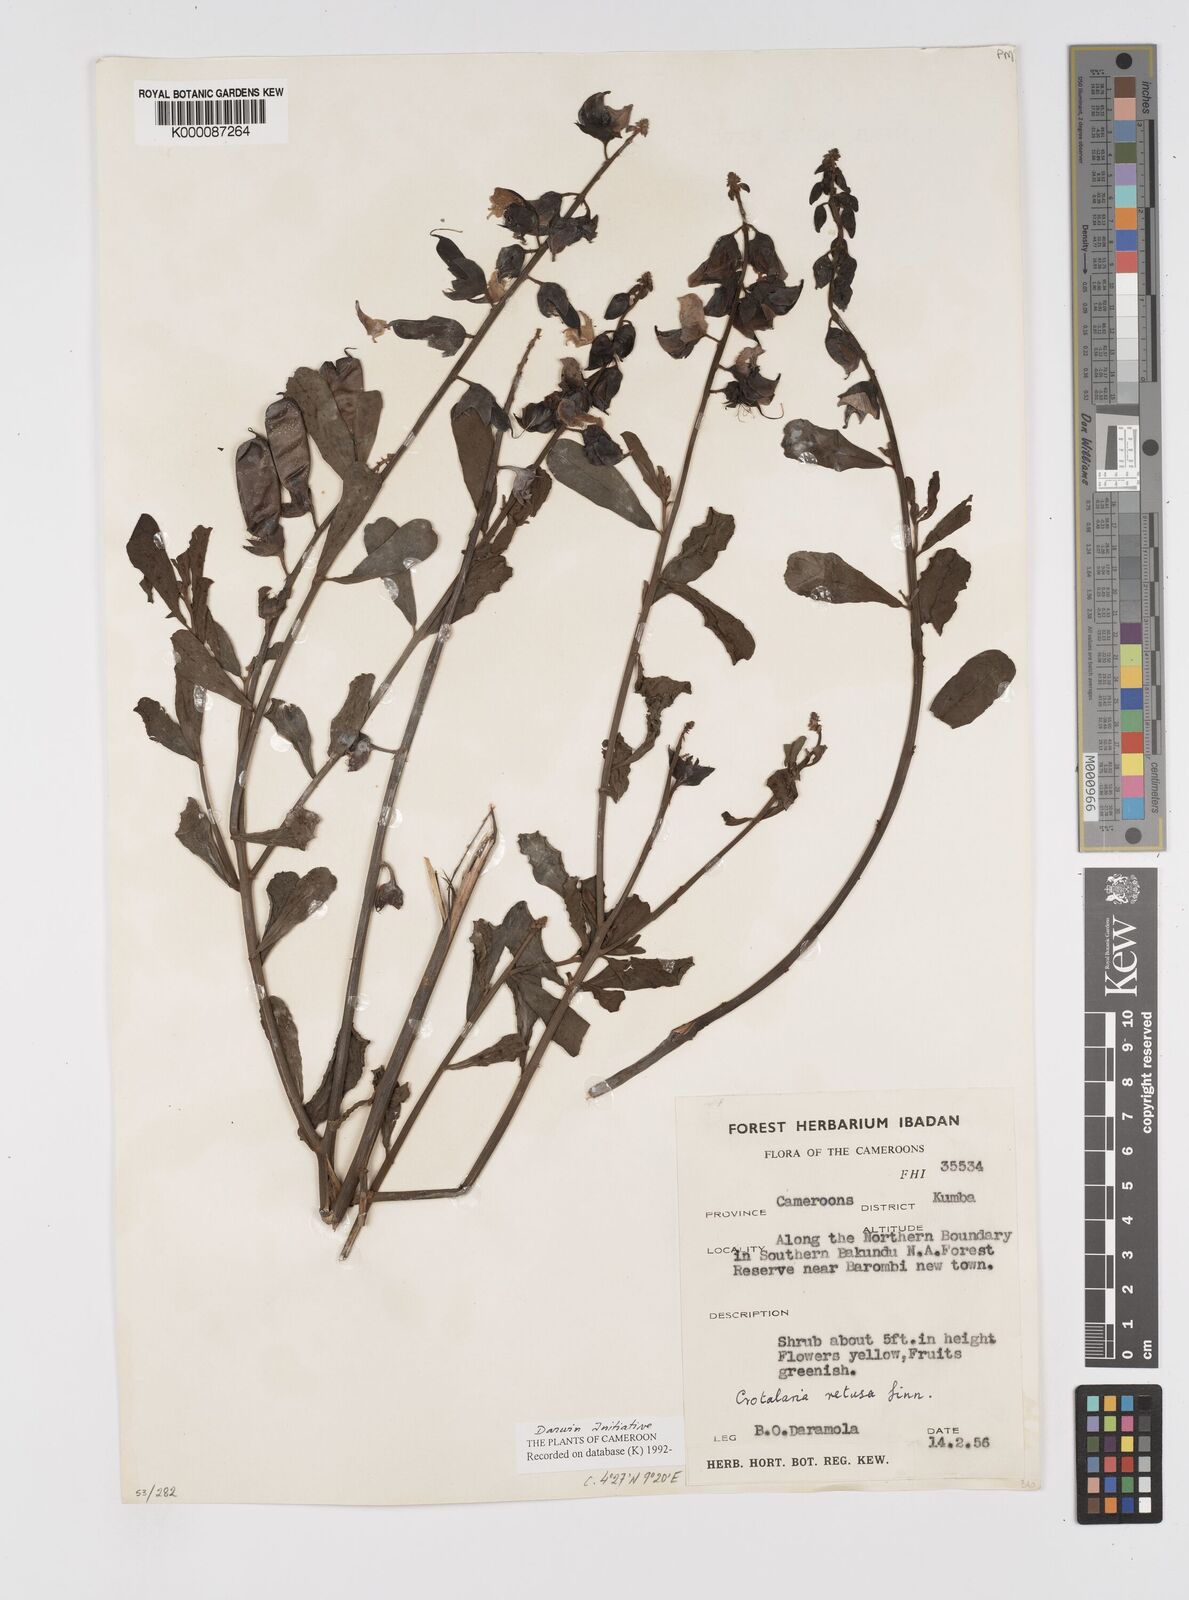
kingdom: Plantae
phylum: Tracheophyta
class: Magnoliopsida
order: Fabales
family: Fabaceae
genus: Crotalaria
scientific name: Crotalaria retusa
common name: Rattleweed
